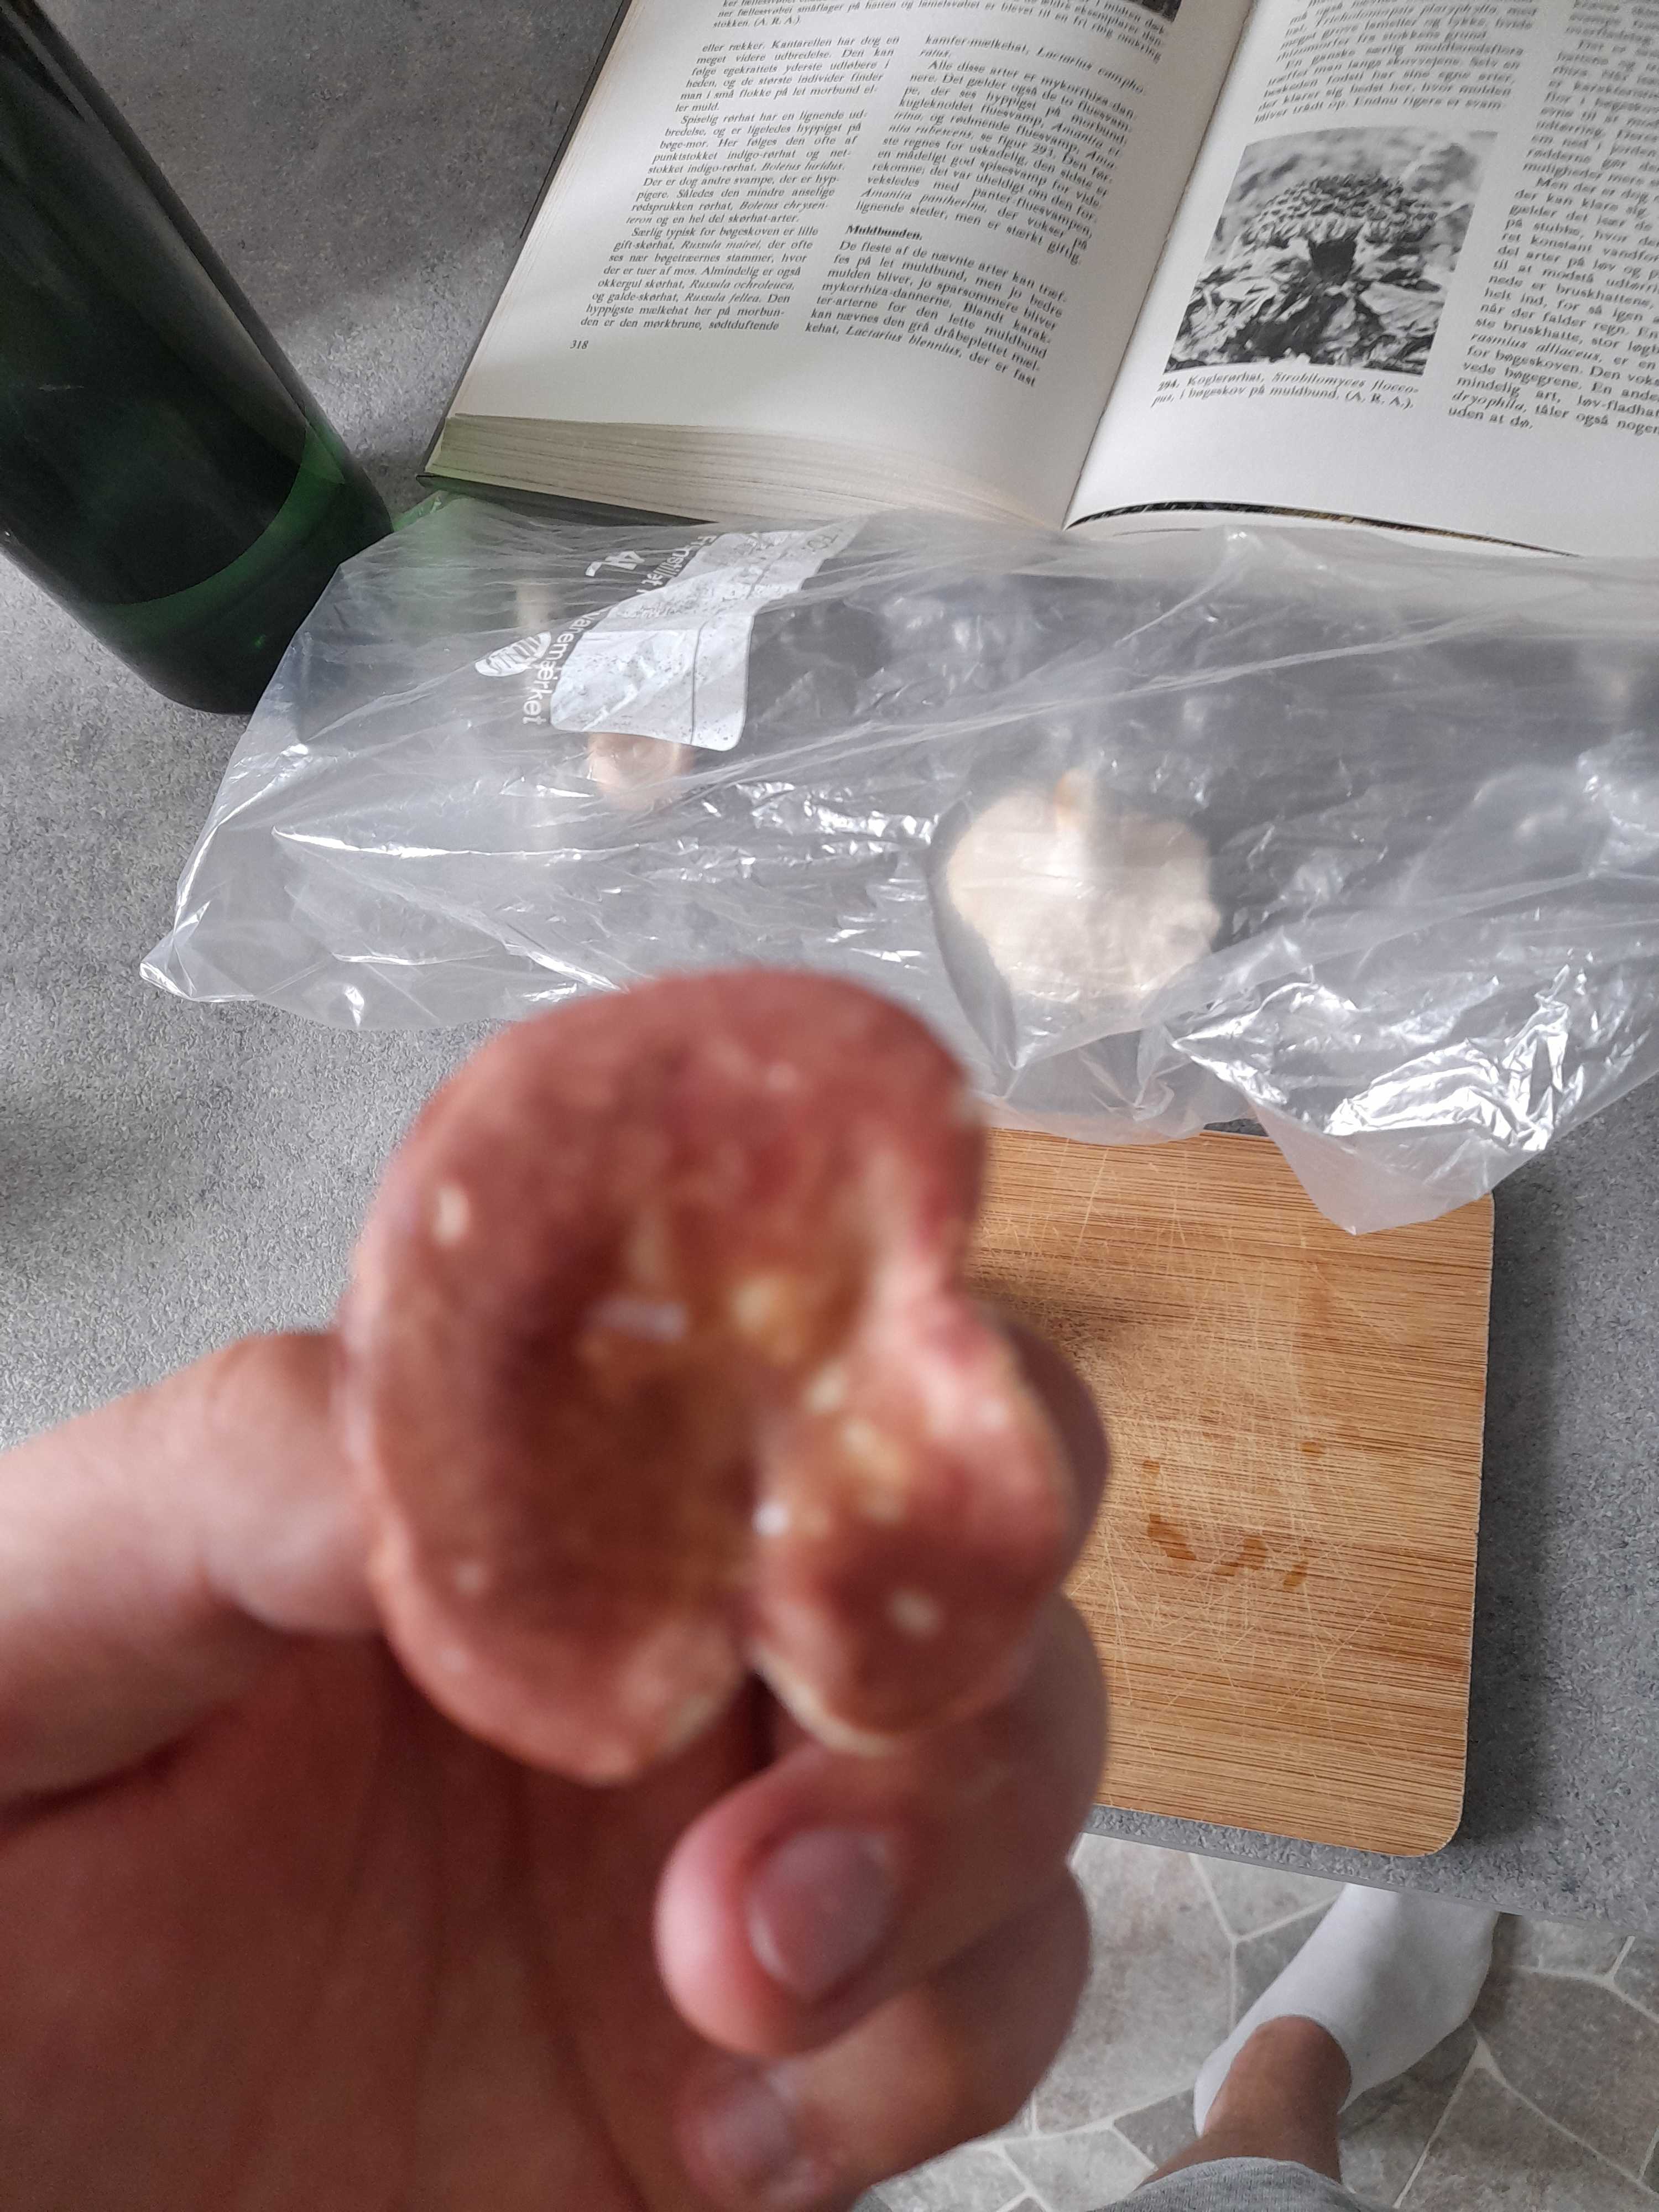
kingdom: Fungi
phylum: Basidiomycota
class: Agaricomycetes
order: Russulales
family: Russulaceae
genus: Russula
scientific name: Russula vesca
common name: spiselig skørhat
